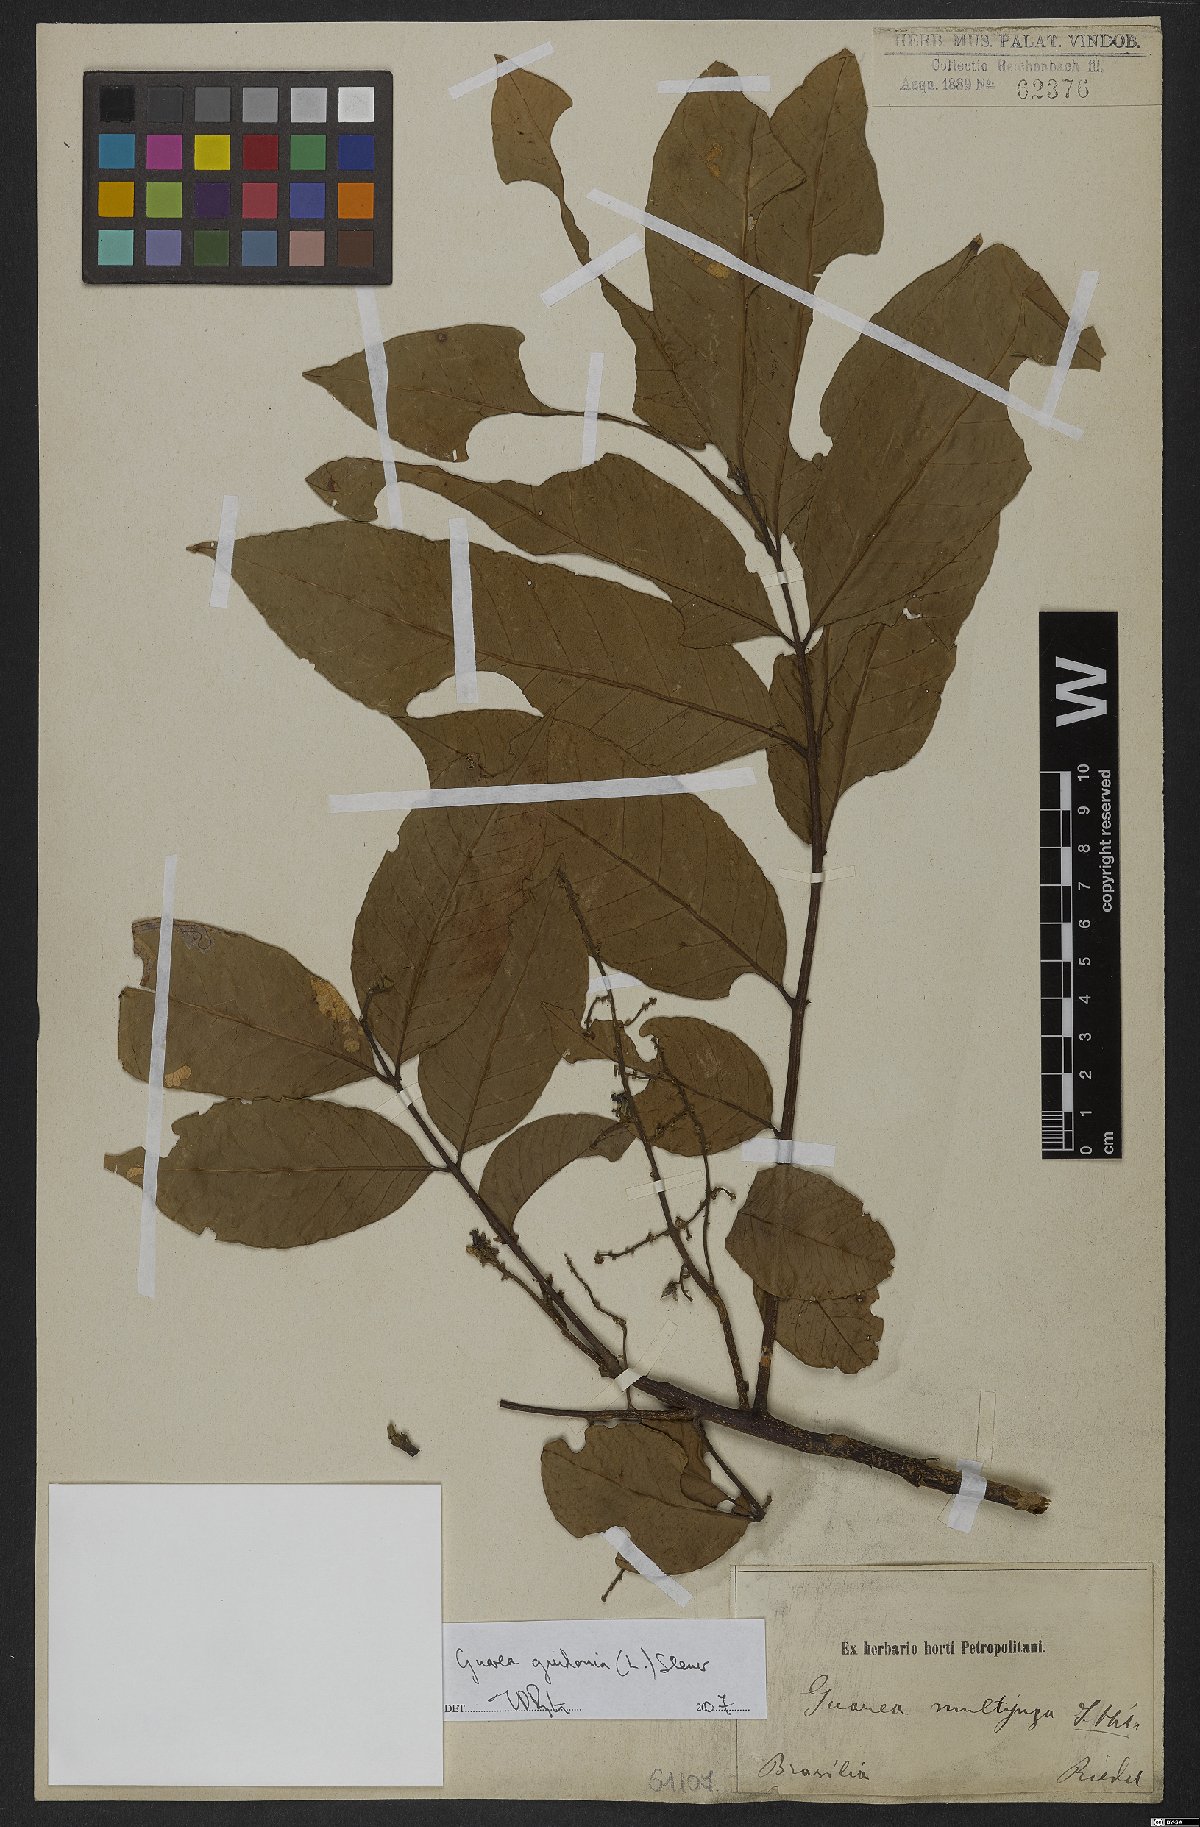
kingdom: Plantae
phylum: Tracheophyta
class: Magnoliopsida
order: Sapindales
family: Meliaceae
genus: Guarea
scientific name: Guarea guidonia
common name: American muskwood
